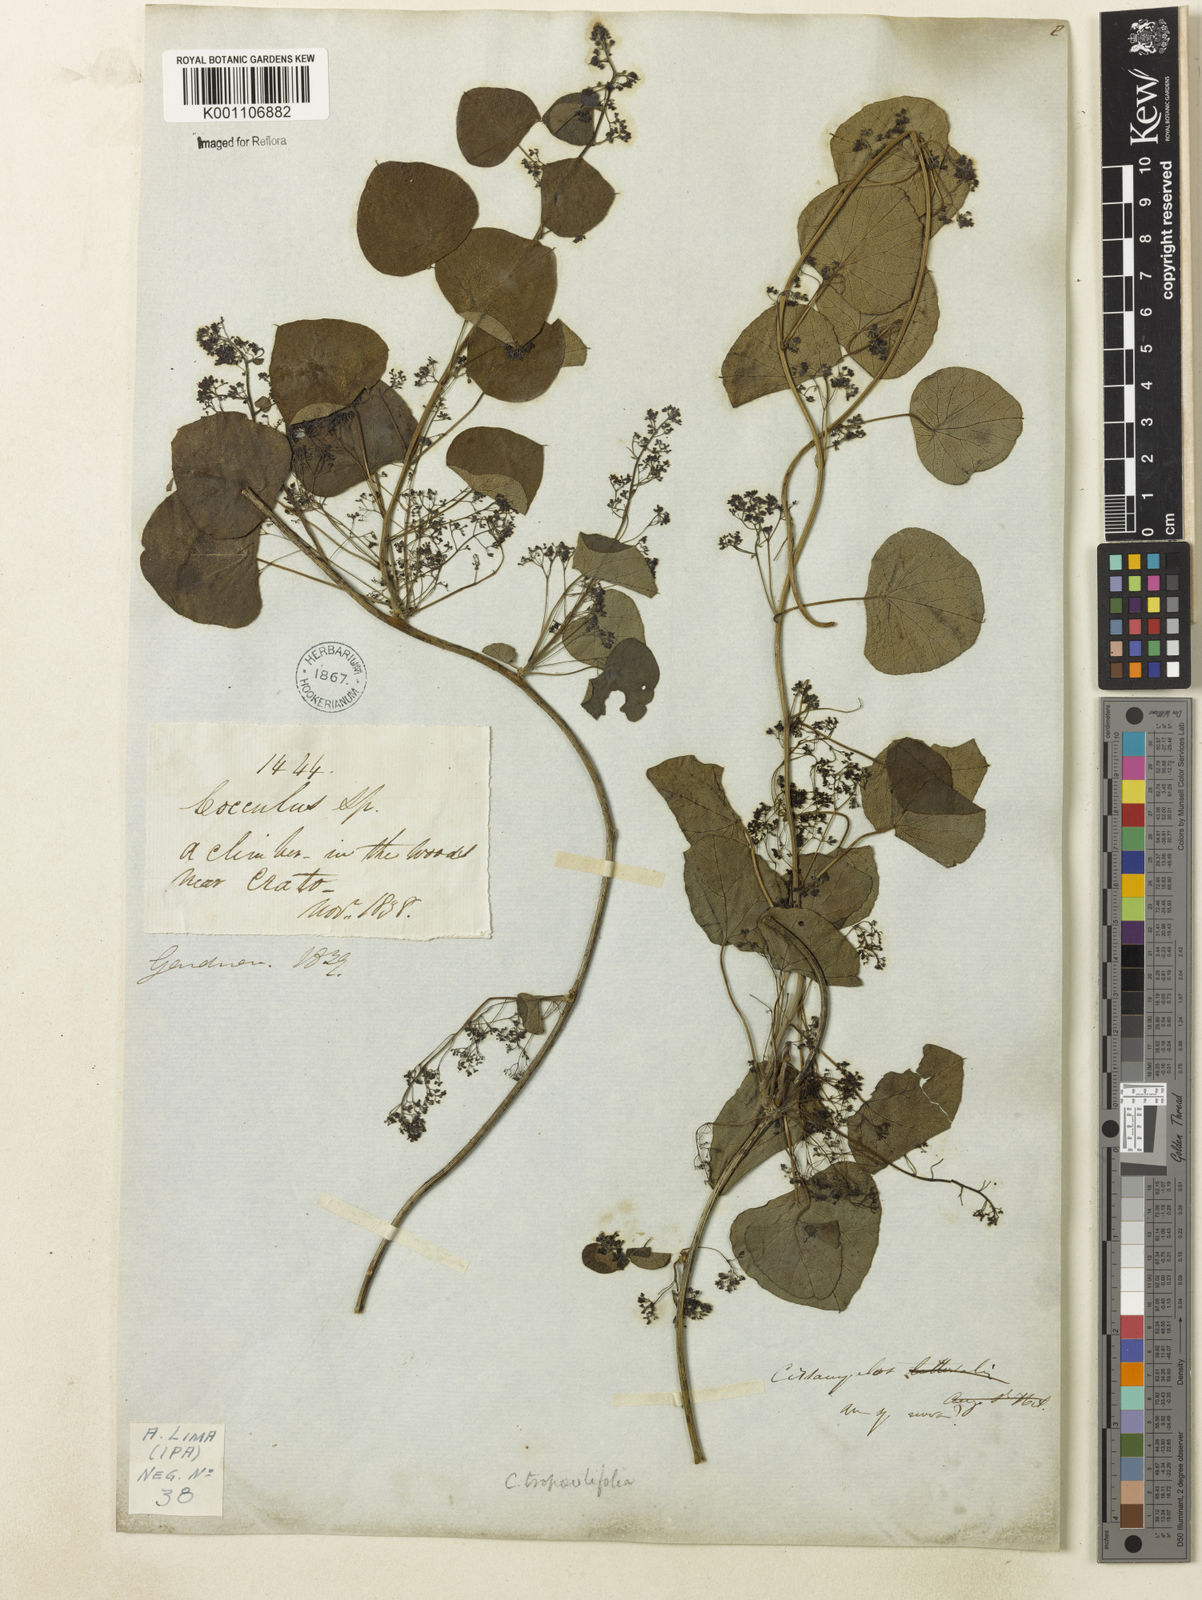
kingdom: Plantae
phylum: Tracheophyta
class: Magnoliopsida
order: Ranunculales
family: Menispermaceae
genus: Cissampelos
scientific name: Cissampelos tropaeolifolia
